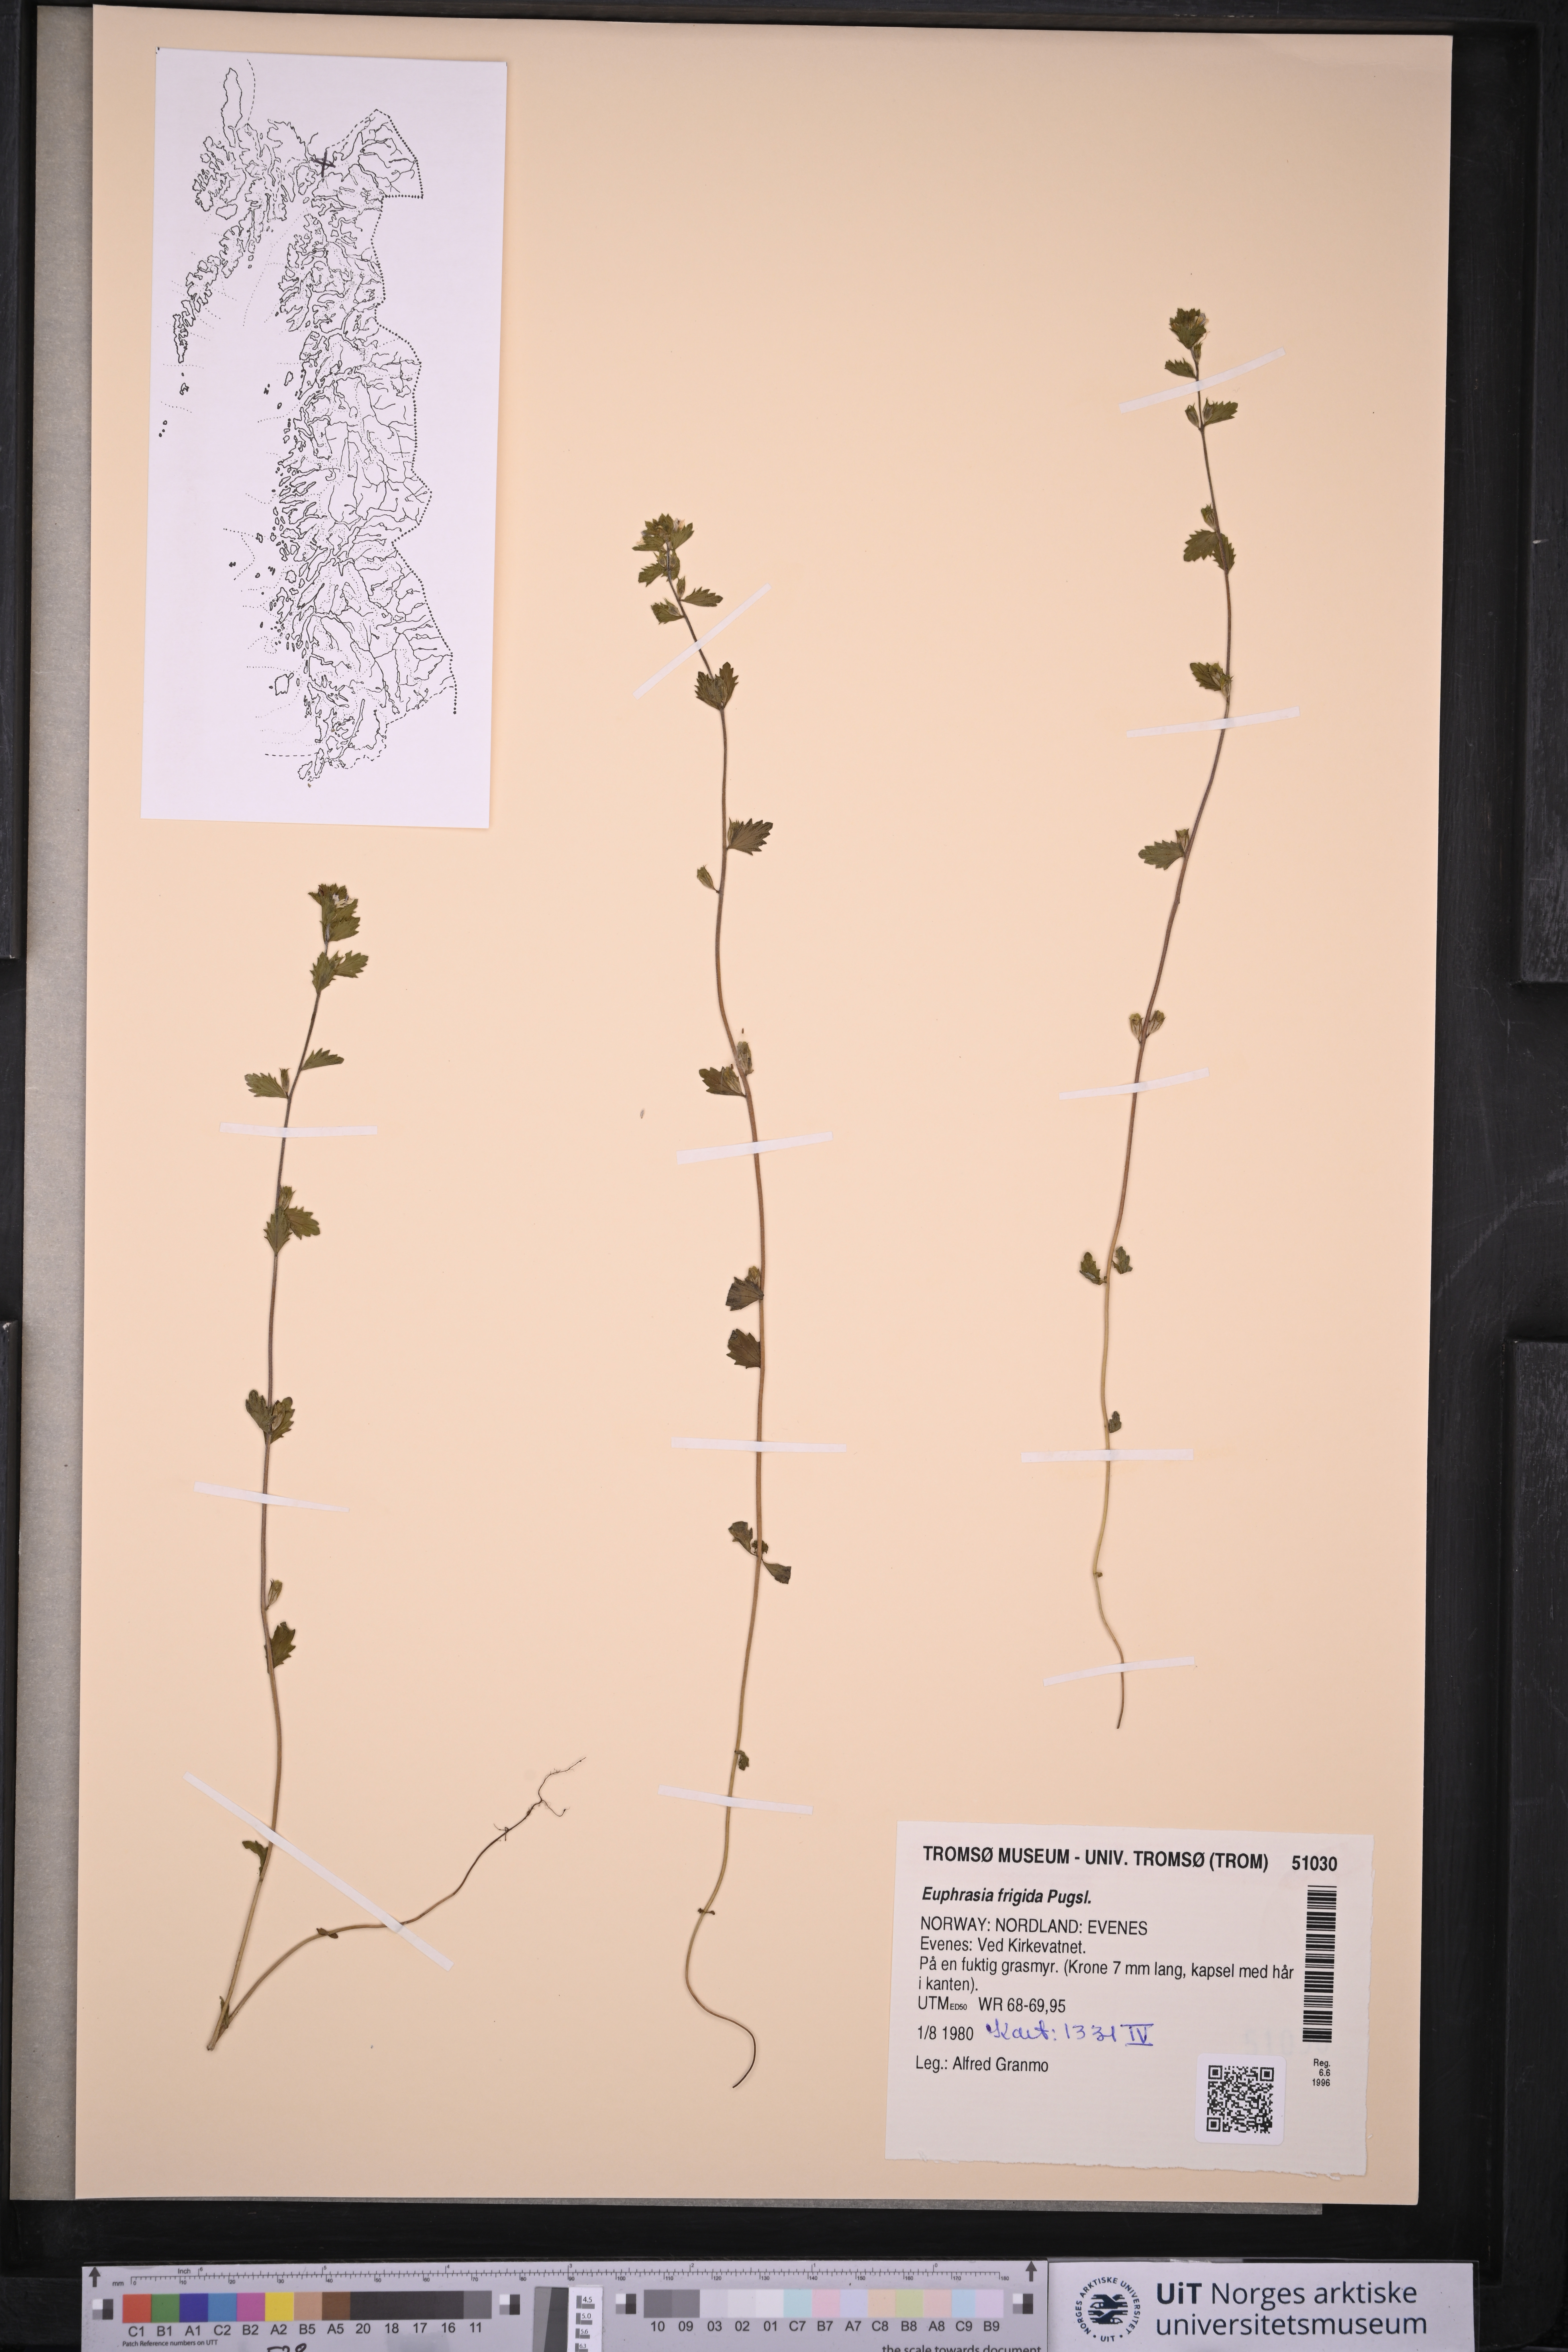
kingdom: Plantae
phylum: Tracheophyta
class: Magnoliopsida
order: Lamiales
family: Orobanchaceae
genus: Euphrasia
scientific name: Euphrasia frigida
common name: An eyebright
